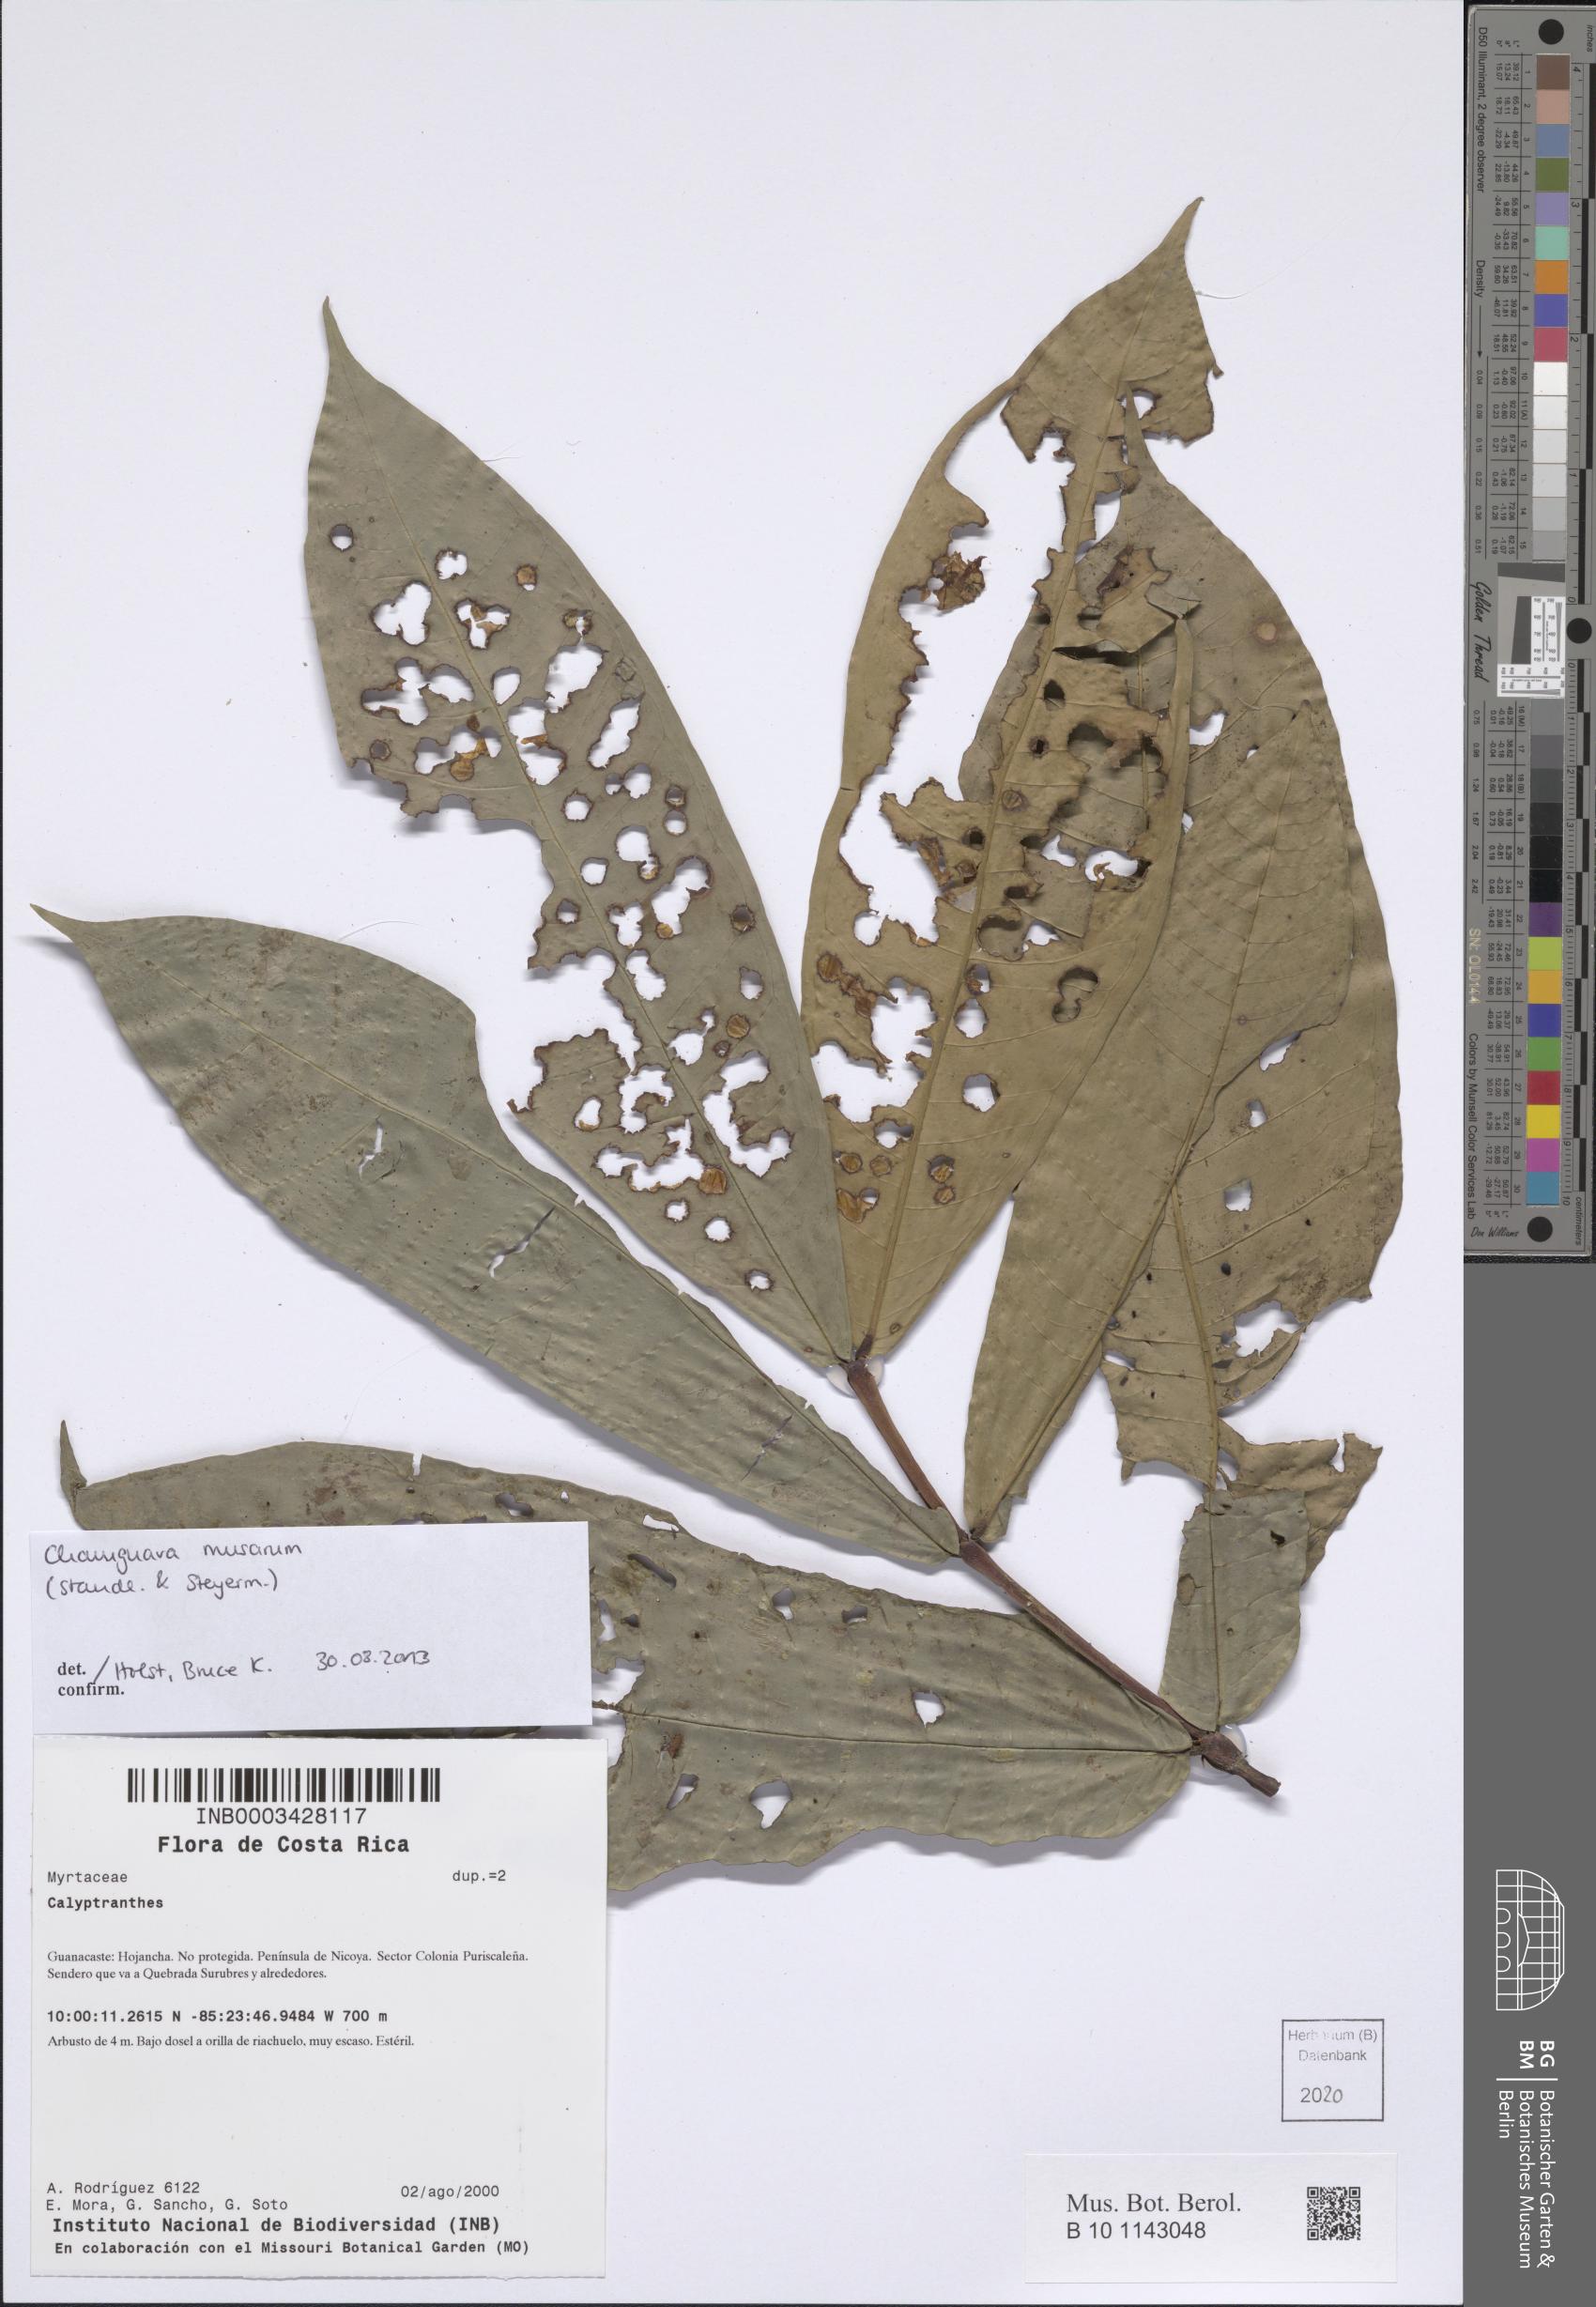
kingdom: Plantae
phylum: Tracheophyta
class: Magnoliopsida
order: Myrtales
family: Myrtaceae
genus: Chamguava
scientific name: Chamguava musarum
